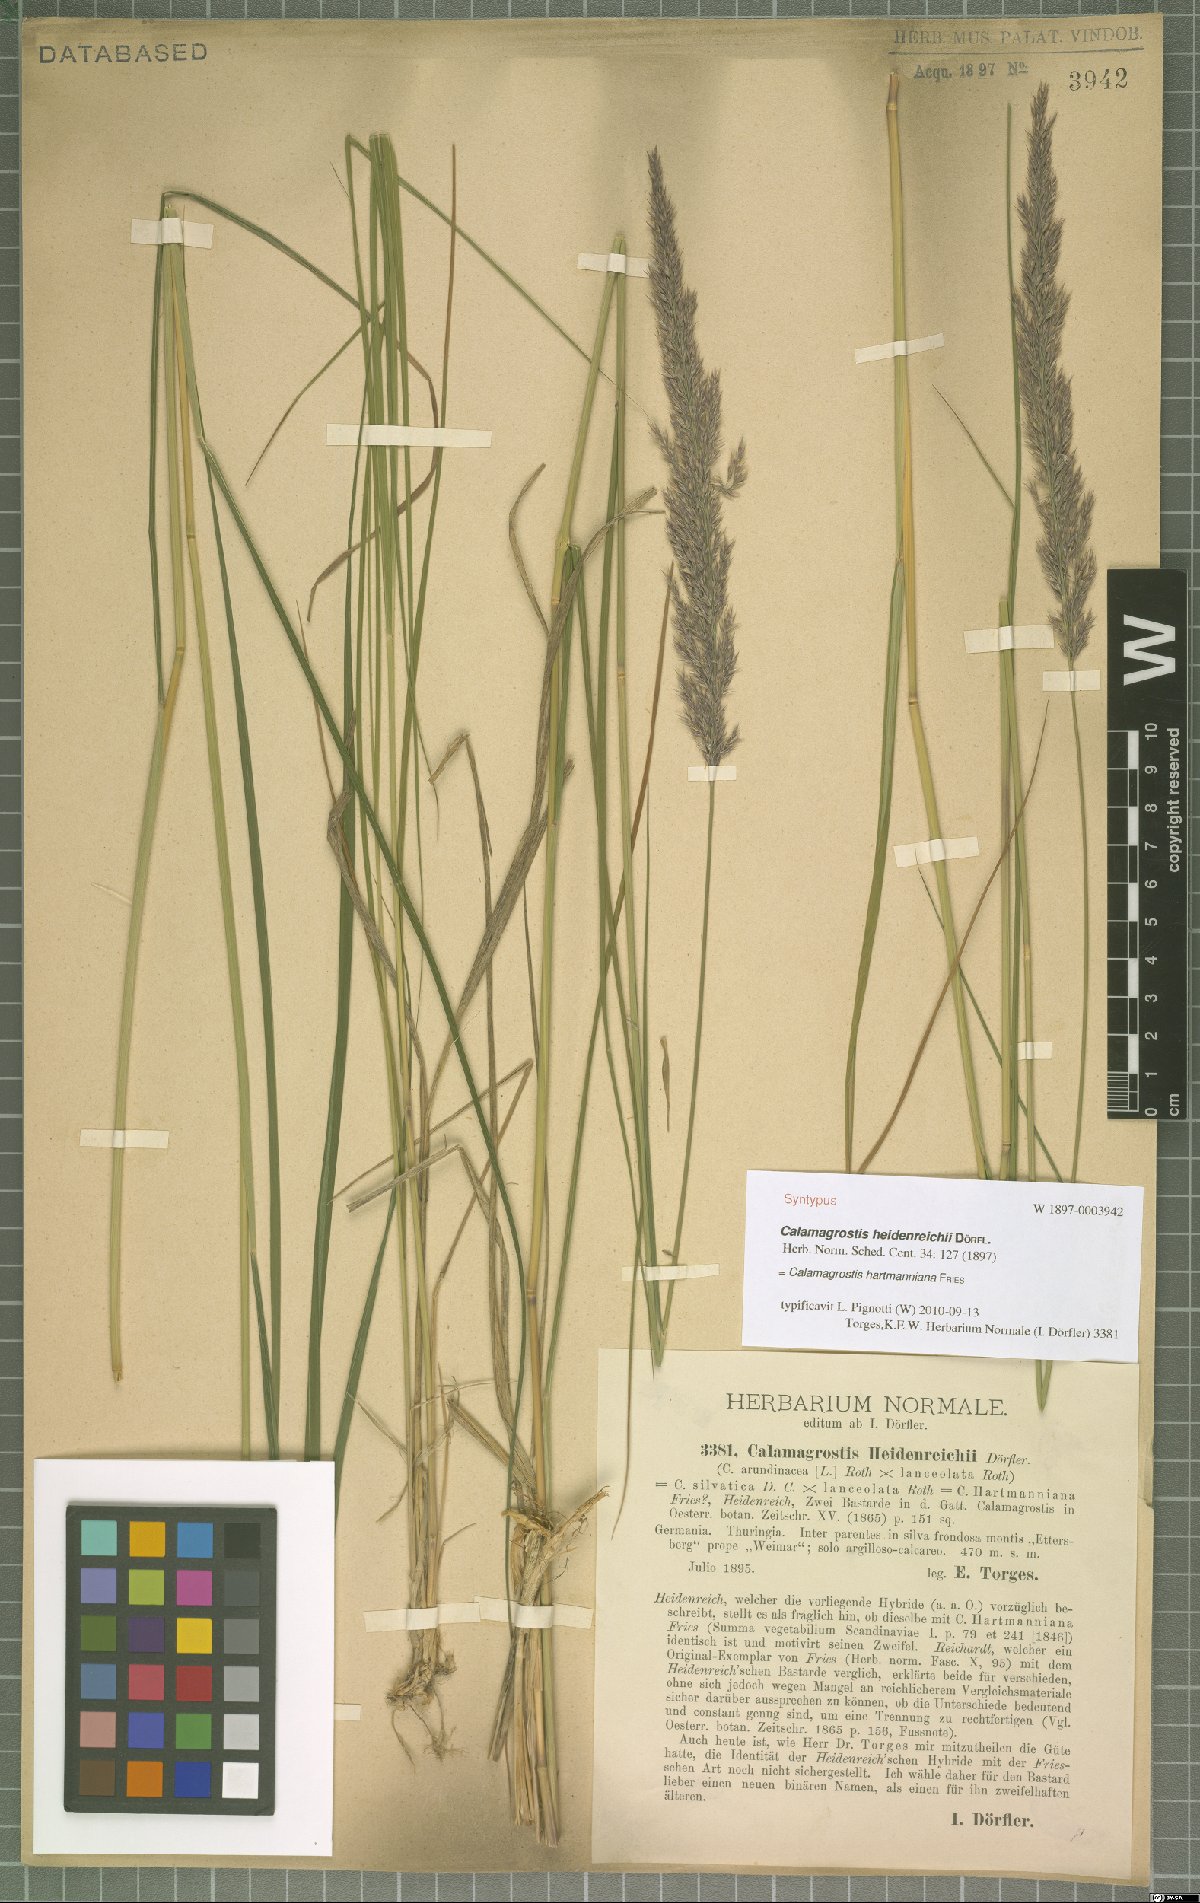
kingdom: Plantae
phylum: Tracheophyta
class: Liliopsida
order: Poales
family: Poaceae
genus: Calamagrostis
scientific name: Calamagrostis hartmaniana
